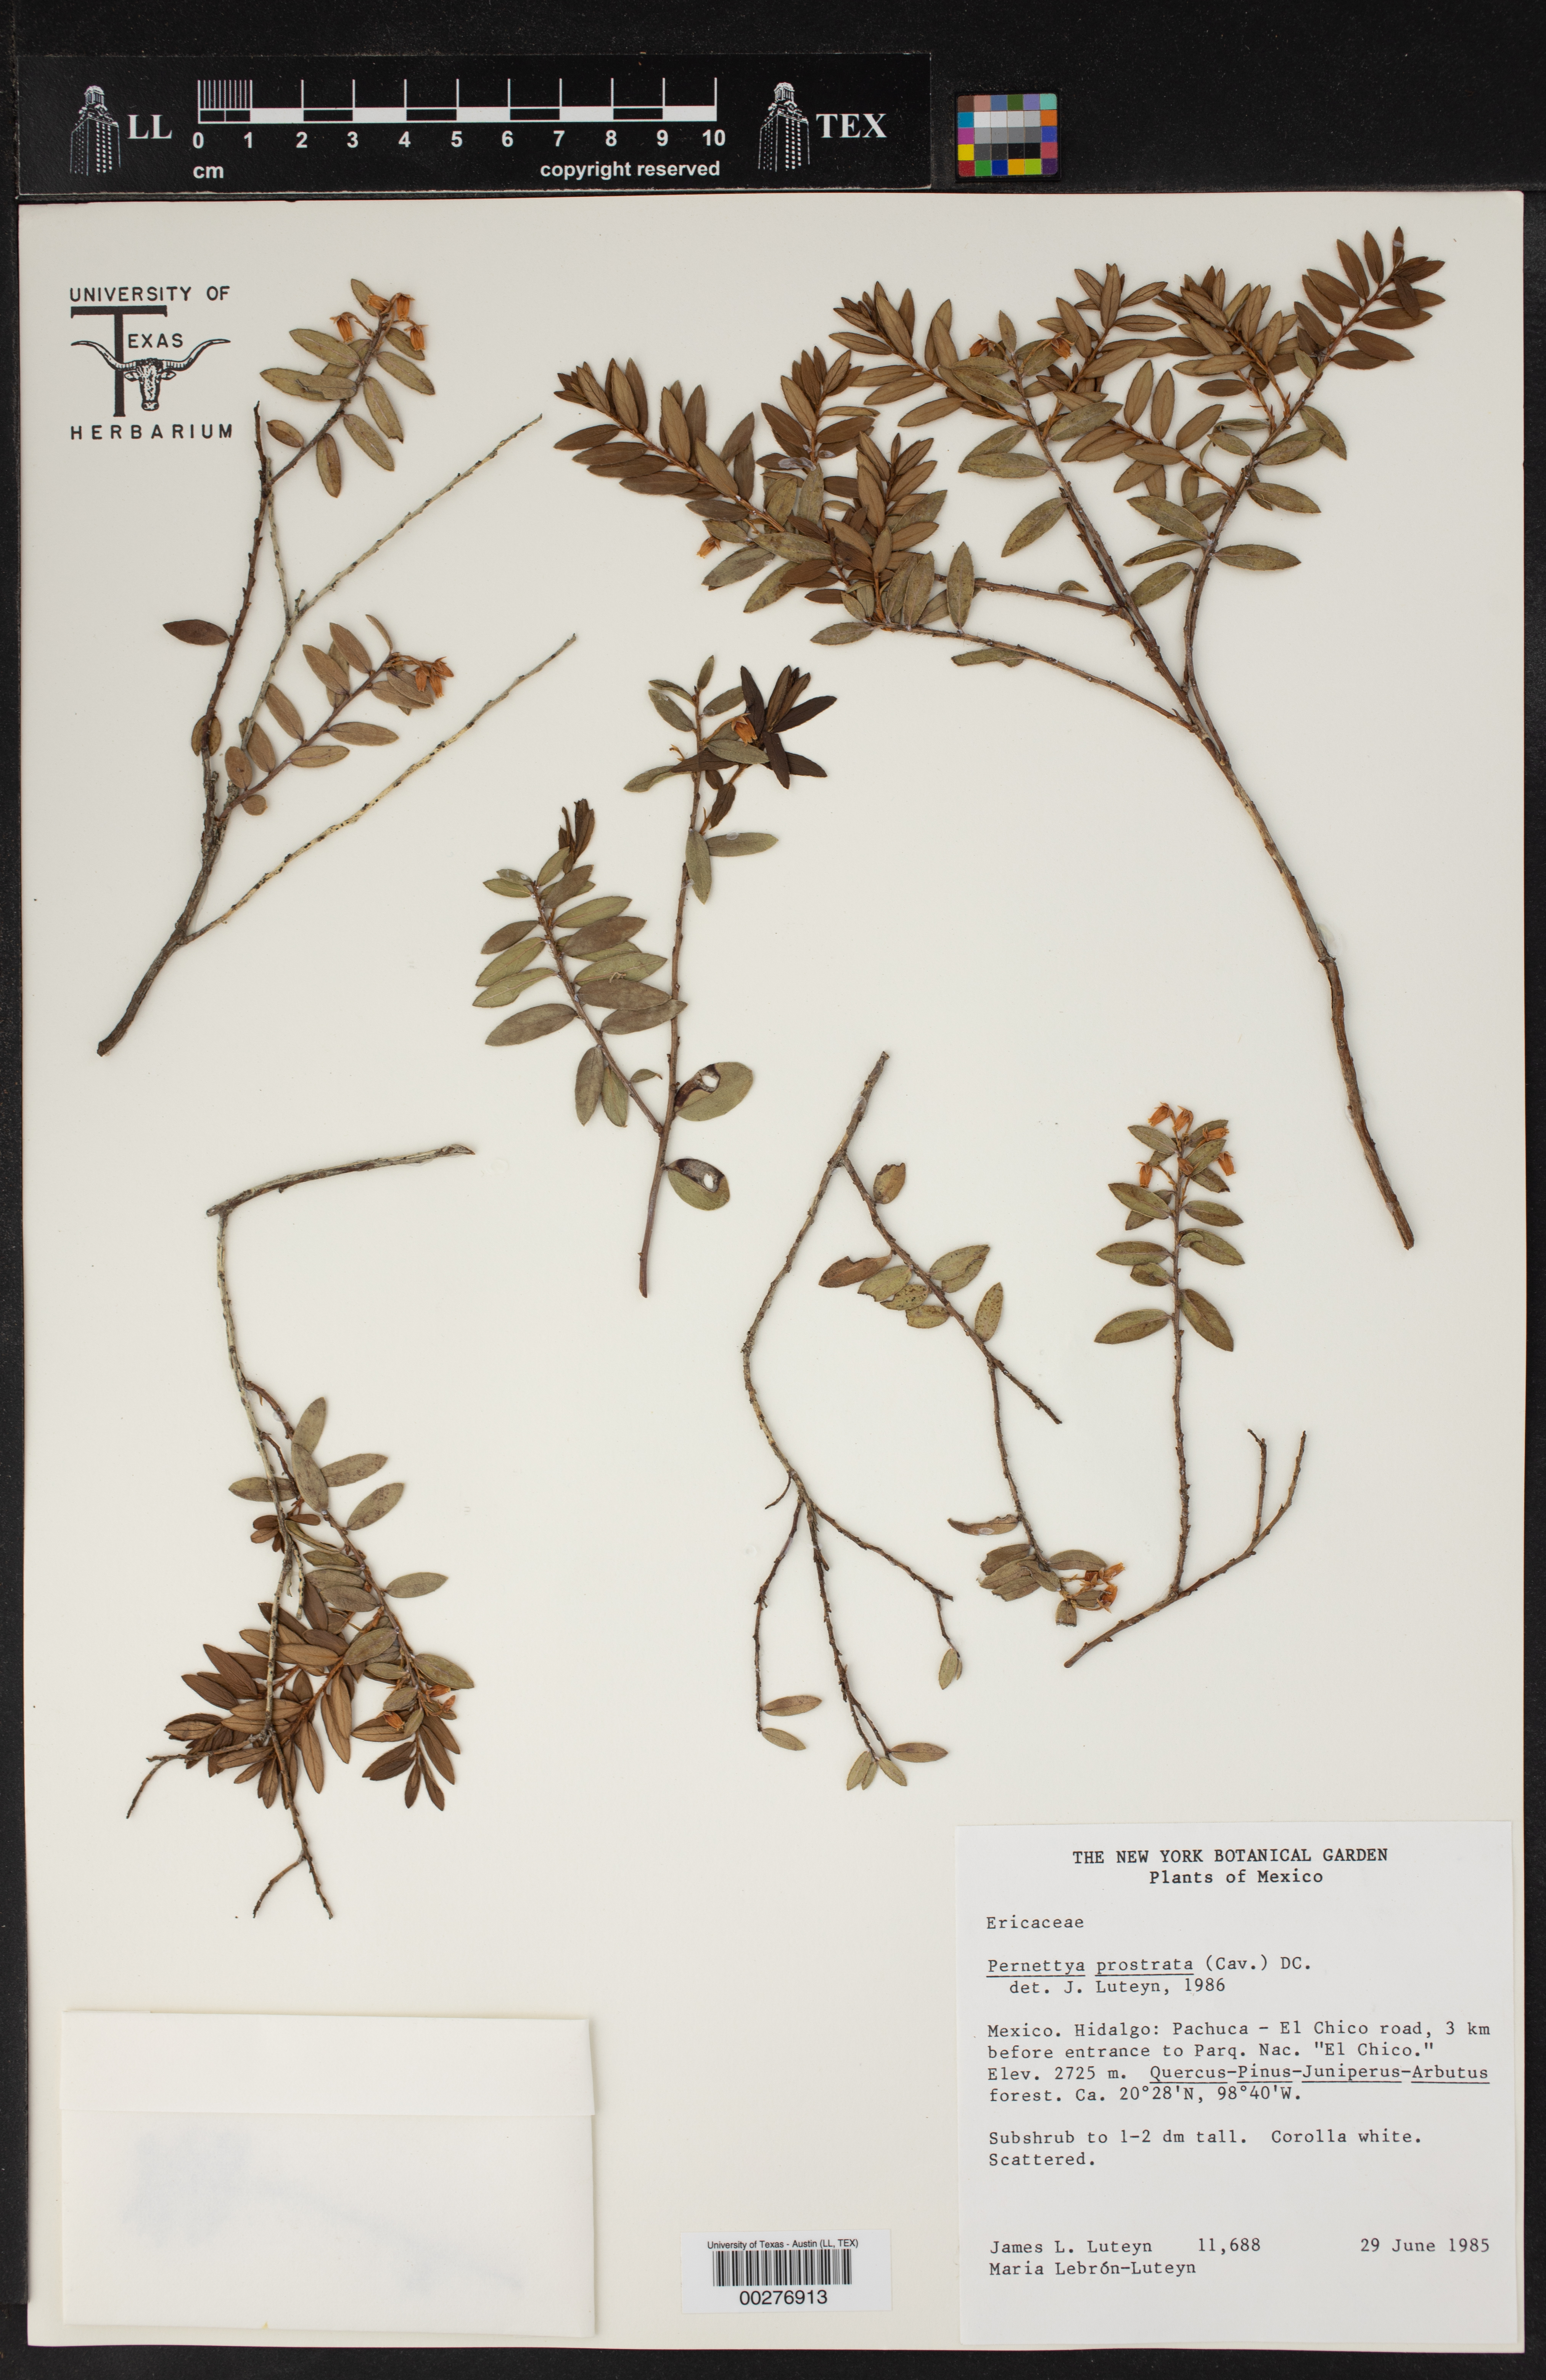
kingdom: Plantae
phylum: Tracheophyta
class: Magnoliopsida
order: Ericales
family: Ericaceae
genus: Gaultheria
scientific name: Gaultheria myrsinoides
